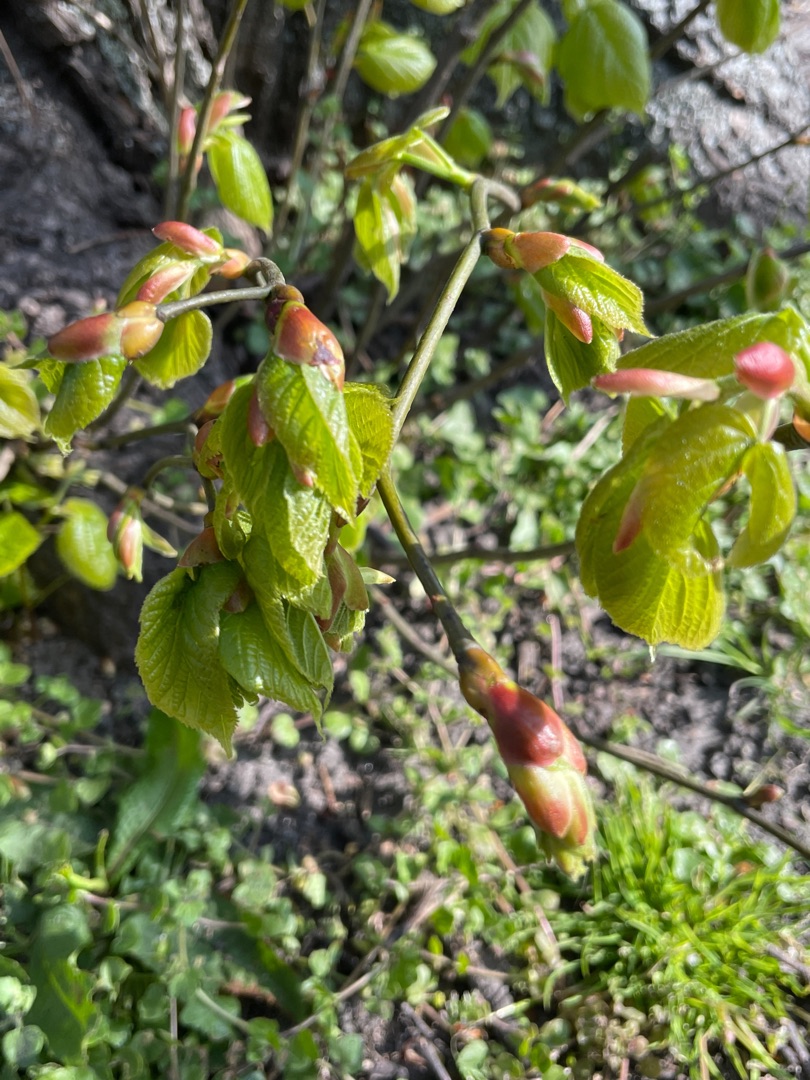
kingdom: Plantae
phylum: Tracheophyta
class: Magnoliopsida
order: Malvales
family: Malvaceae
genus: Tilia
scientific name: Tilia platyphyllos
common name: Storbladet lind
